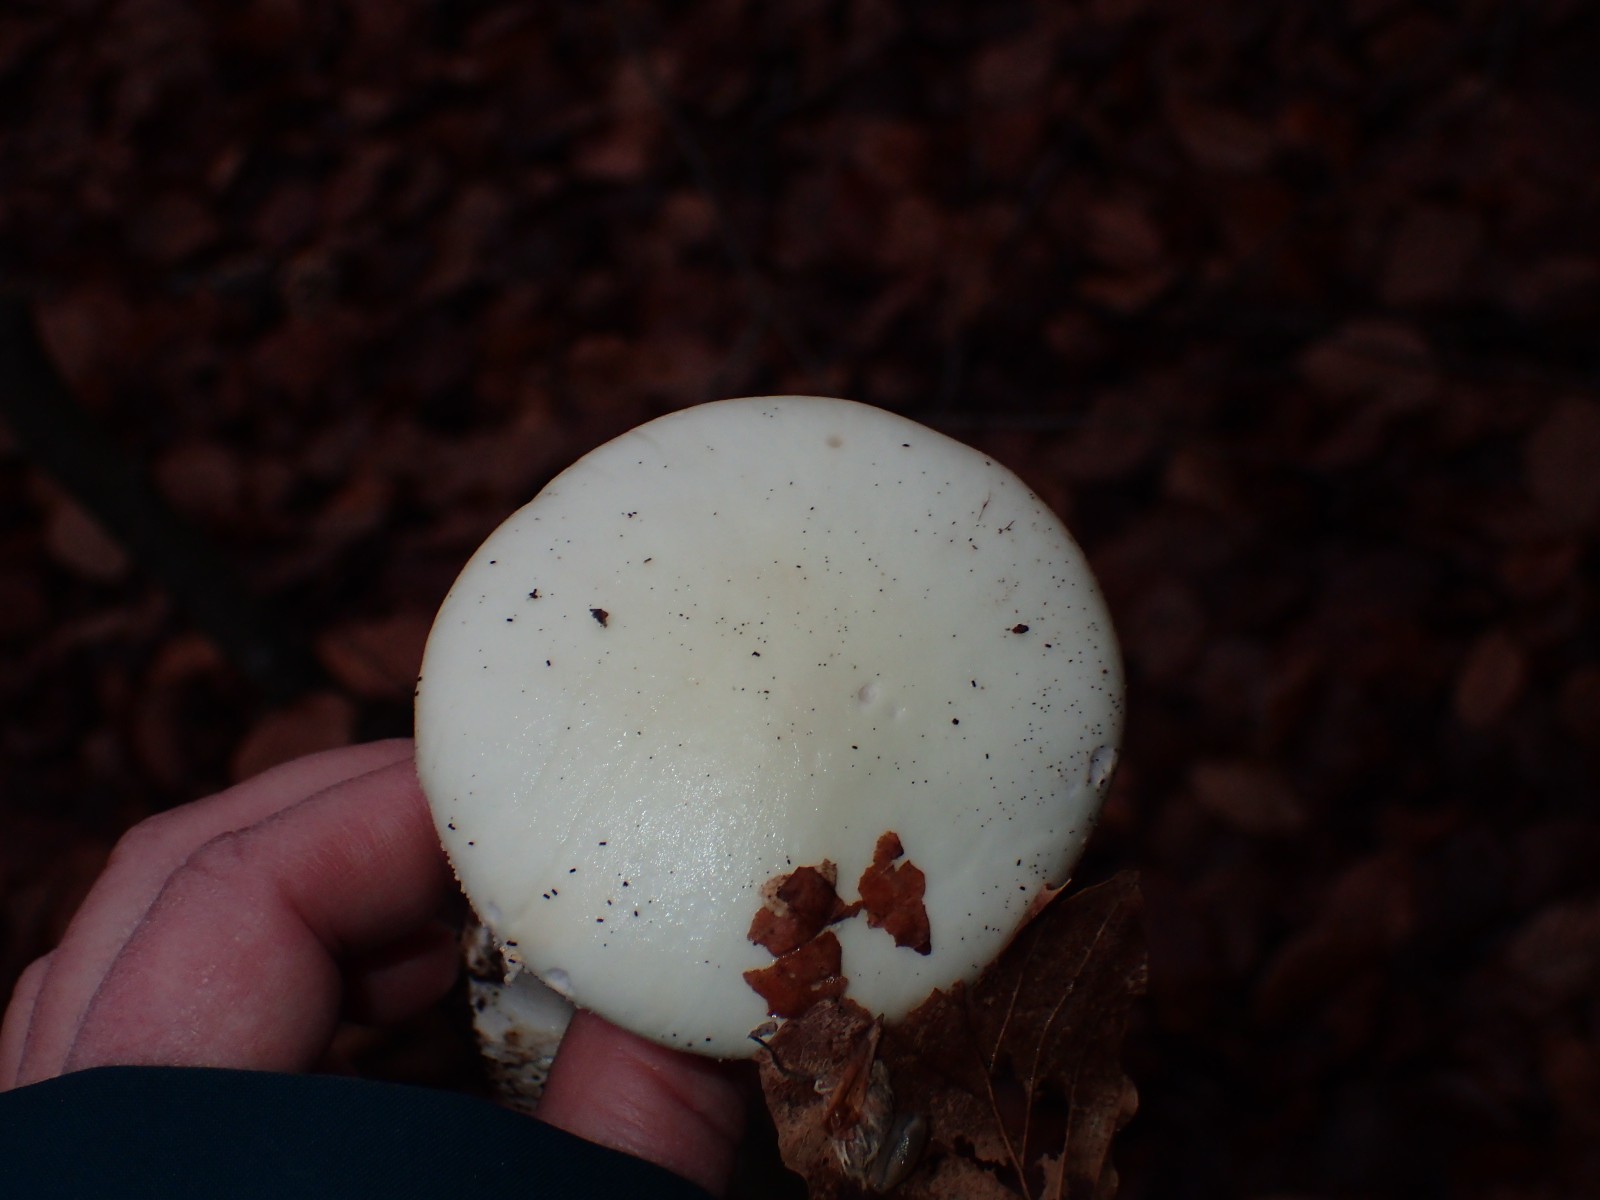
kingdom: Fungi
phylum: Basidiomycota
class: Agaricomycetes
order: Agaricales
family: Amanitaceae
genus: Amanita
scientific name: Amanita citrina
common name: kugleknoldet fluesvamp
